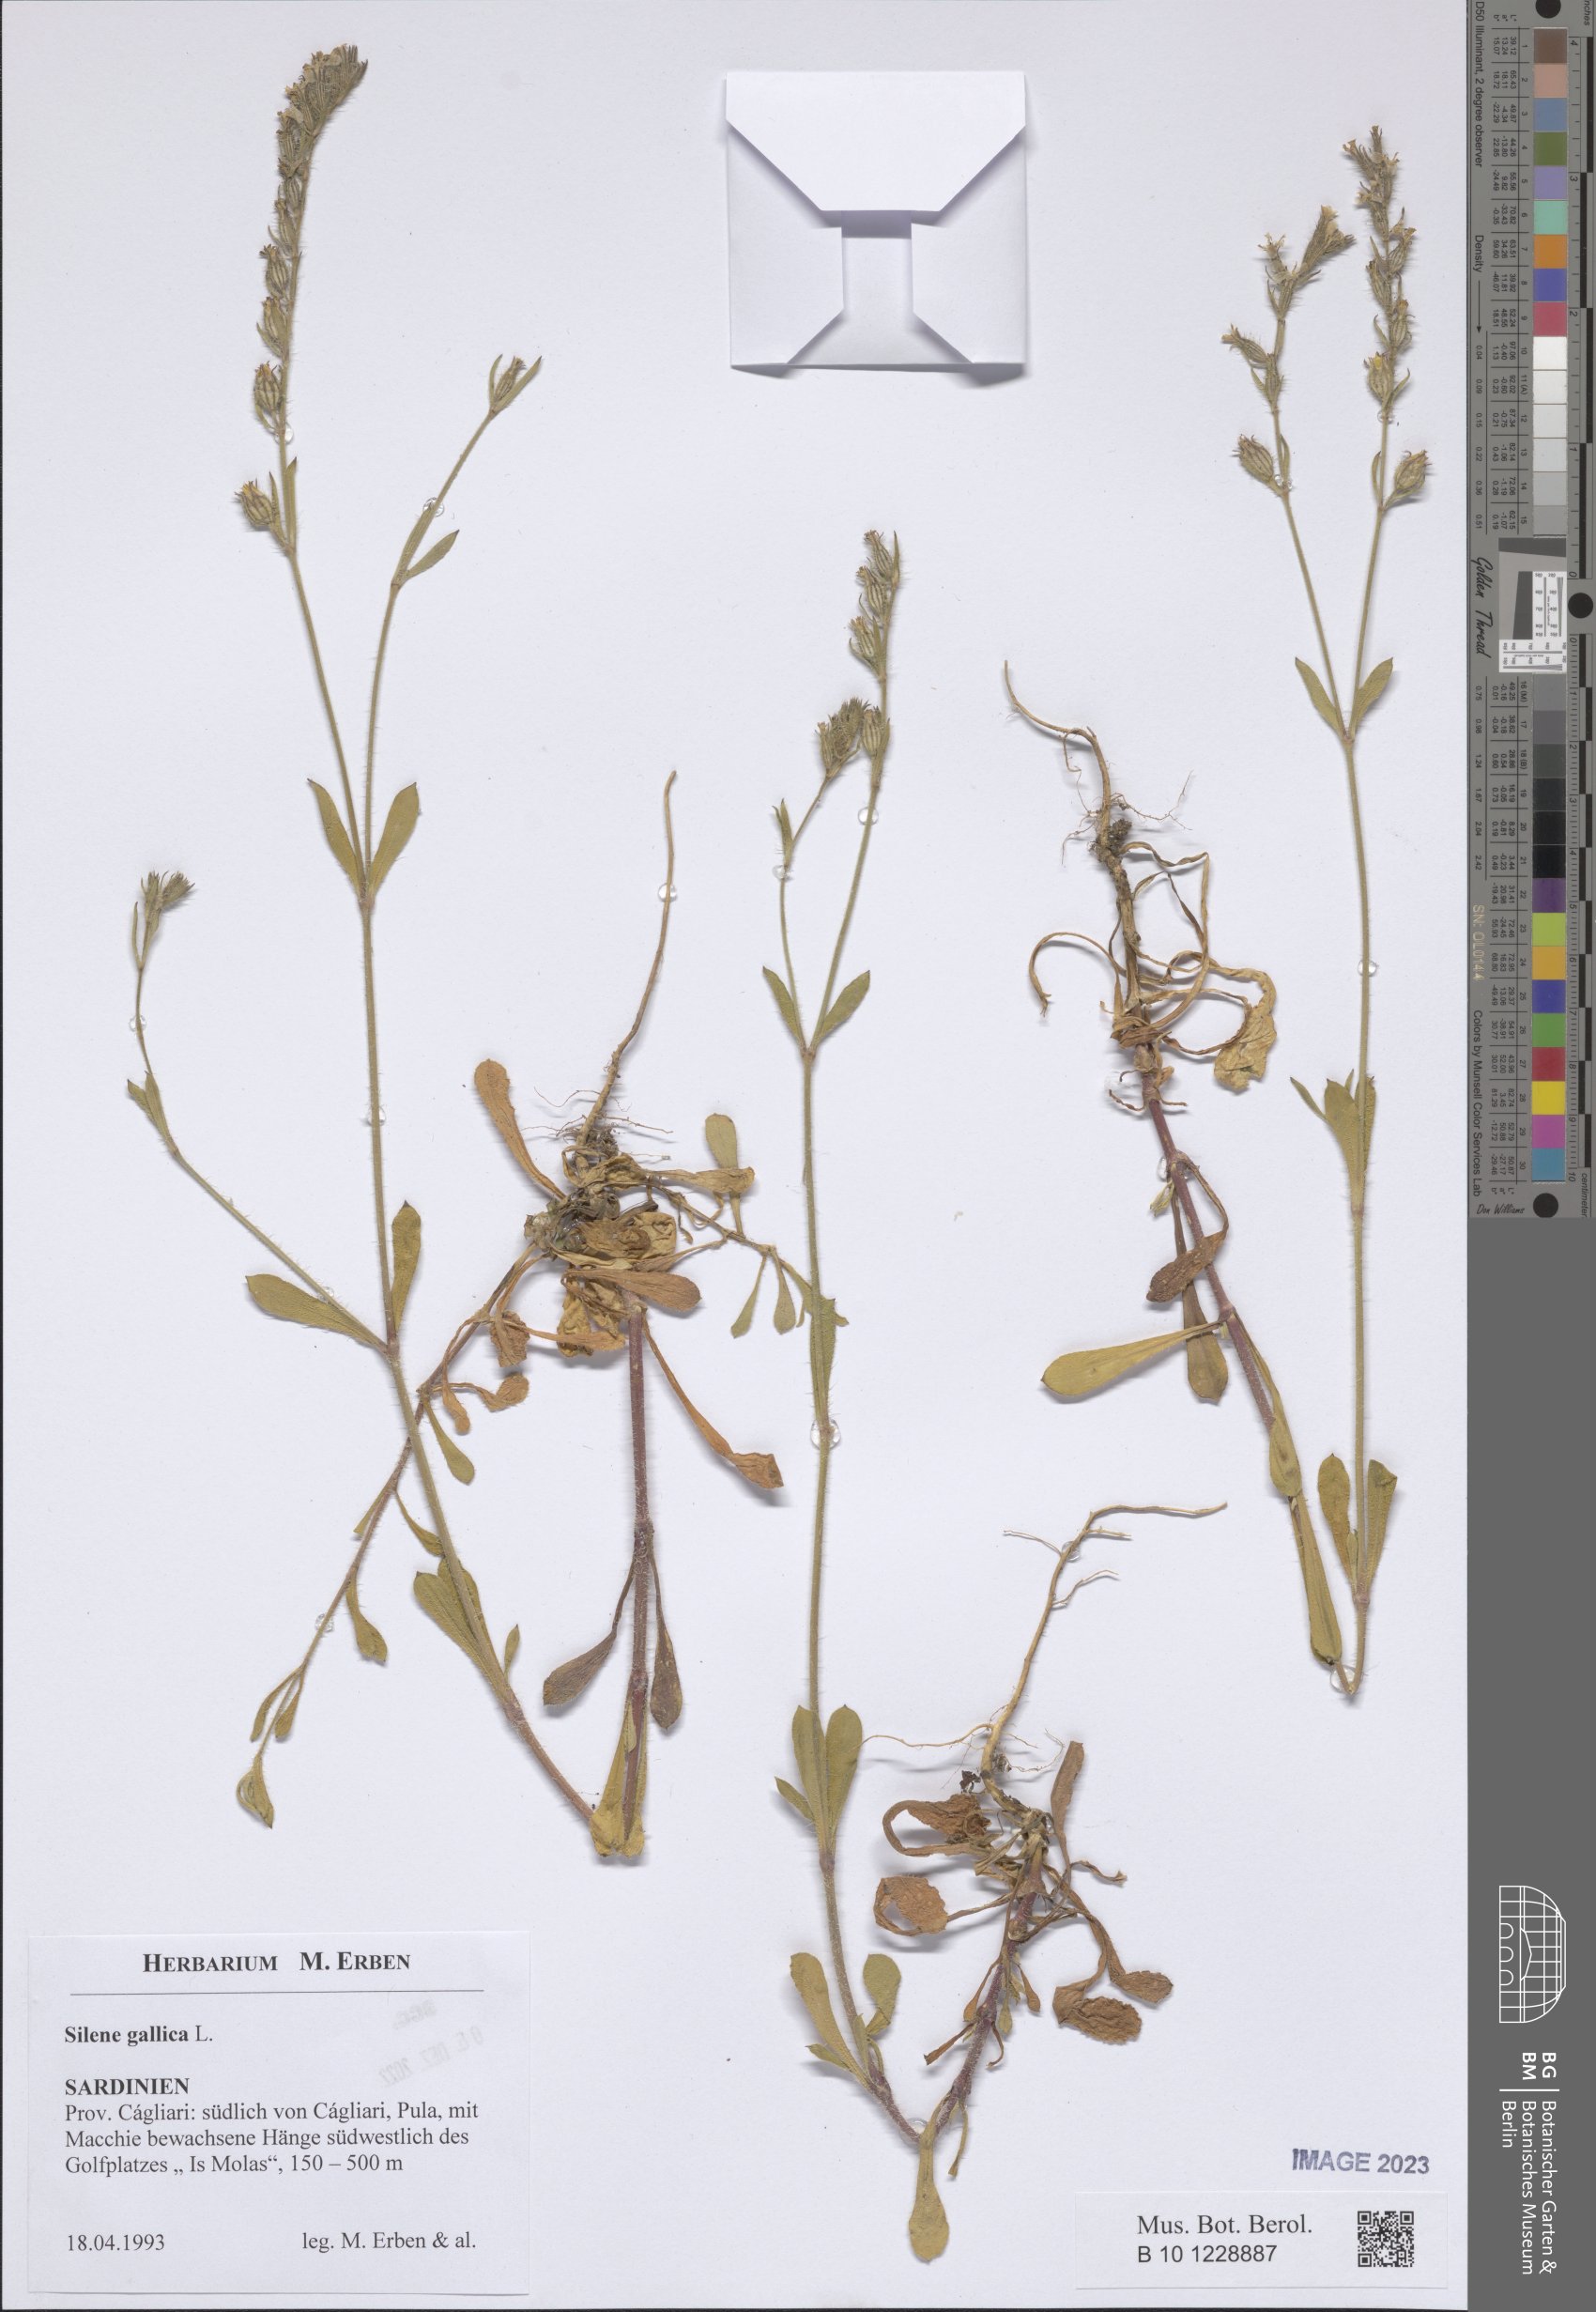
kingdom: Plantae
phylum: Tracheophyta
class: Magnoliopsida
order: Caryophyllales
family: Caryophyllaceae
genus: Silene
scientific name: Silene gallica
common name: Small-flowered catchfly
